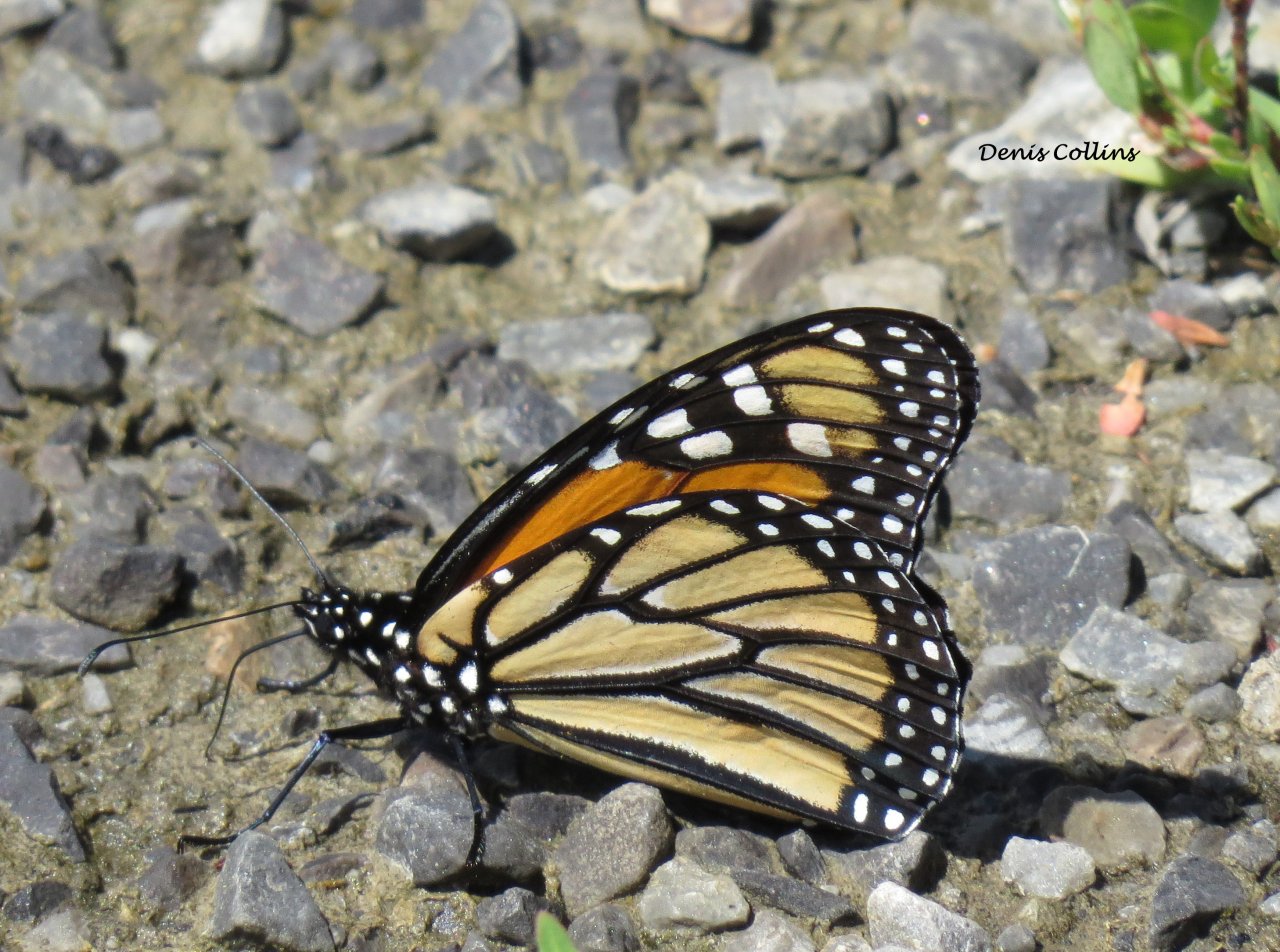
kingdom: Animalia
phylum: Arthropoda
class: Insecta
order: Lepidoptera
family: Nymphalidae
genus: Danaus
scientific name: Danaus plexippus
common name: Monarch
